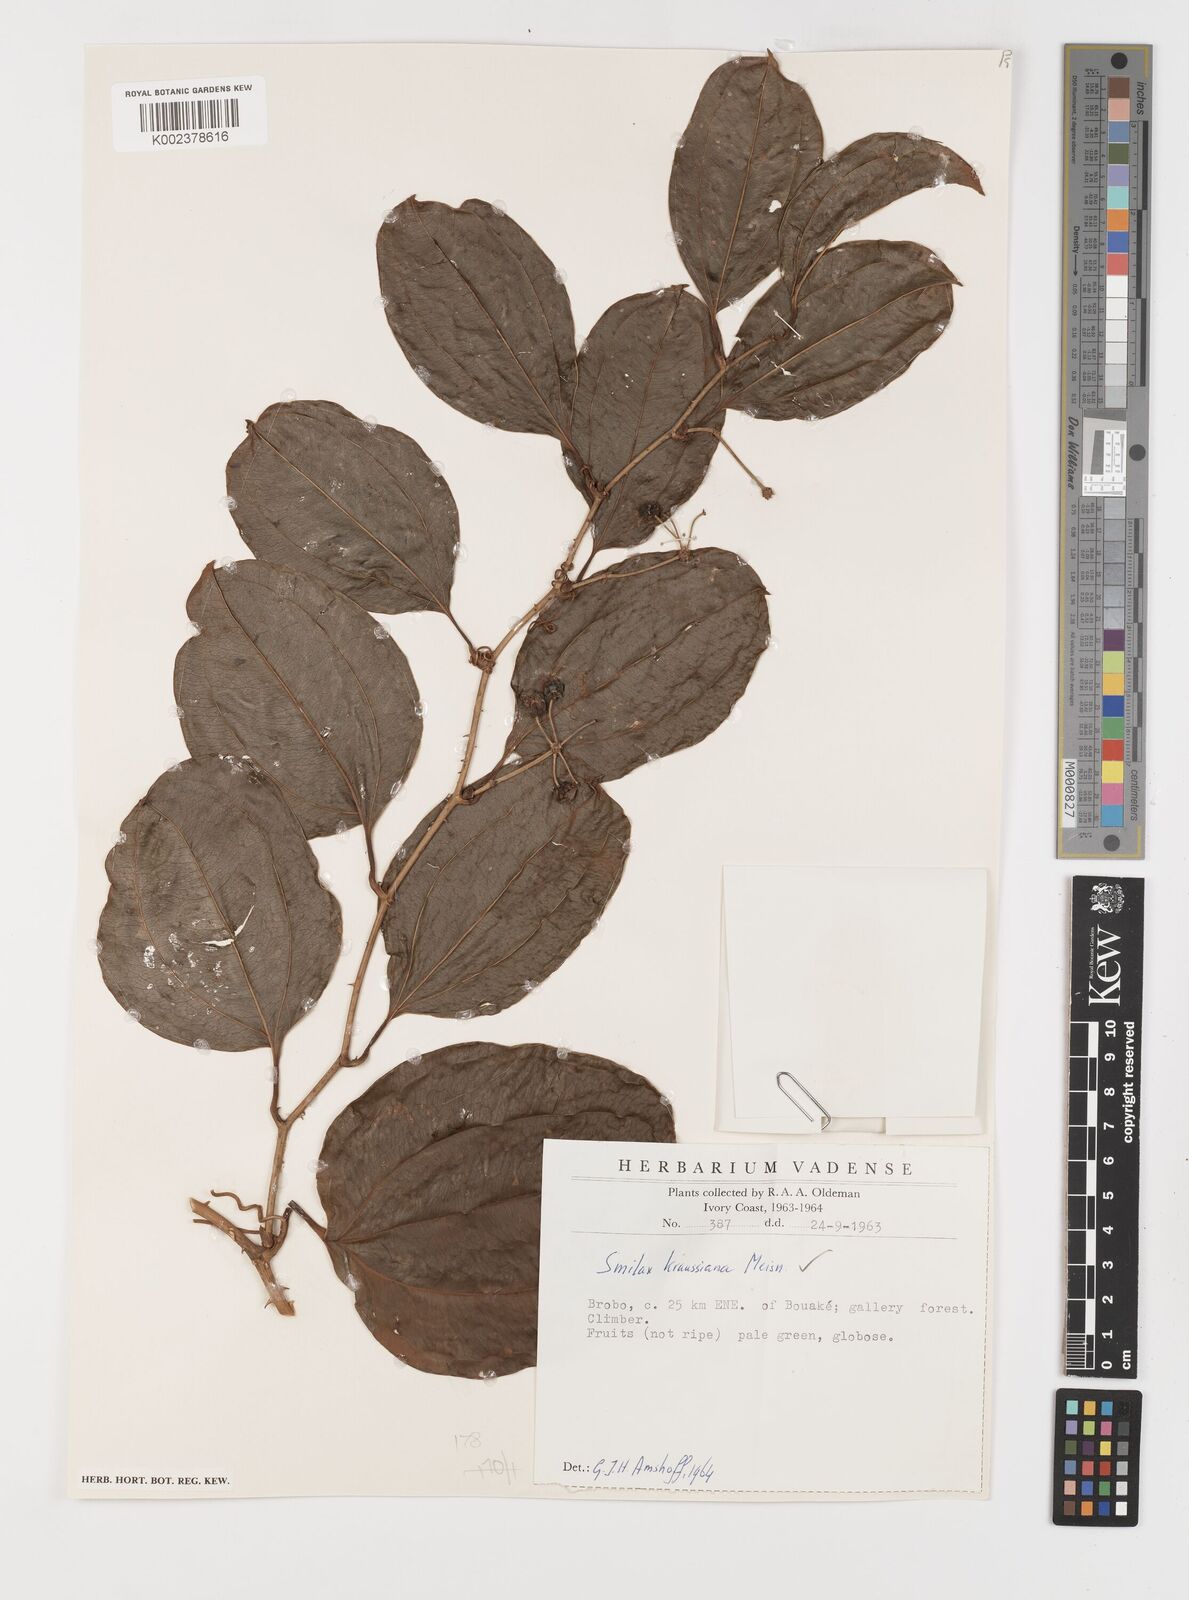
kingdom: Plantae
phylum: Tracheophyta
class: Liliopsida
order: Liliales
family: Smilacaceae
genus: Smilax
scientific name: Smilax anceps
